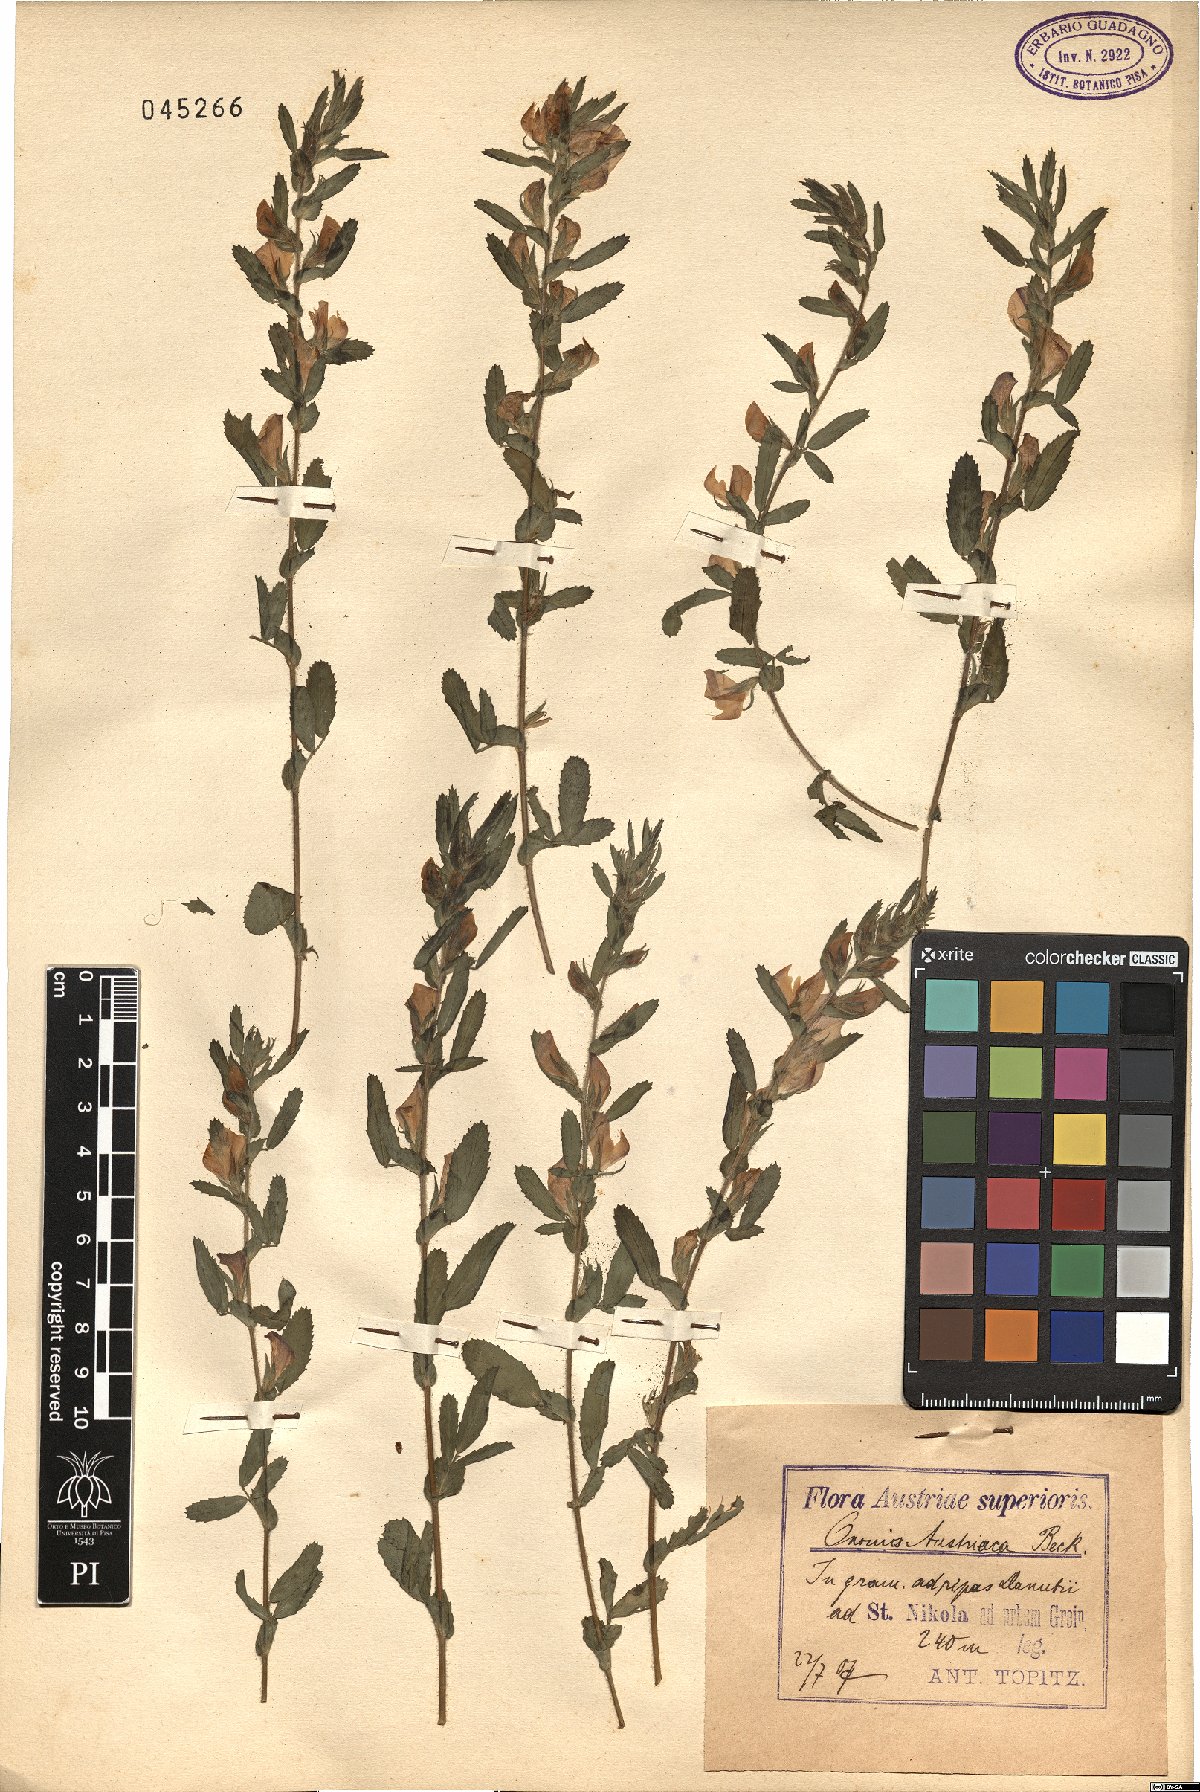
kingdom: Plantae
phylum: Tracheophyta
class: Magnoliopsida
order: Fabales
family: Fabaceae
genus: Ononis
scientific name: Ononis spinosa
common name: Spiny restharrow
